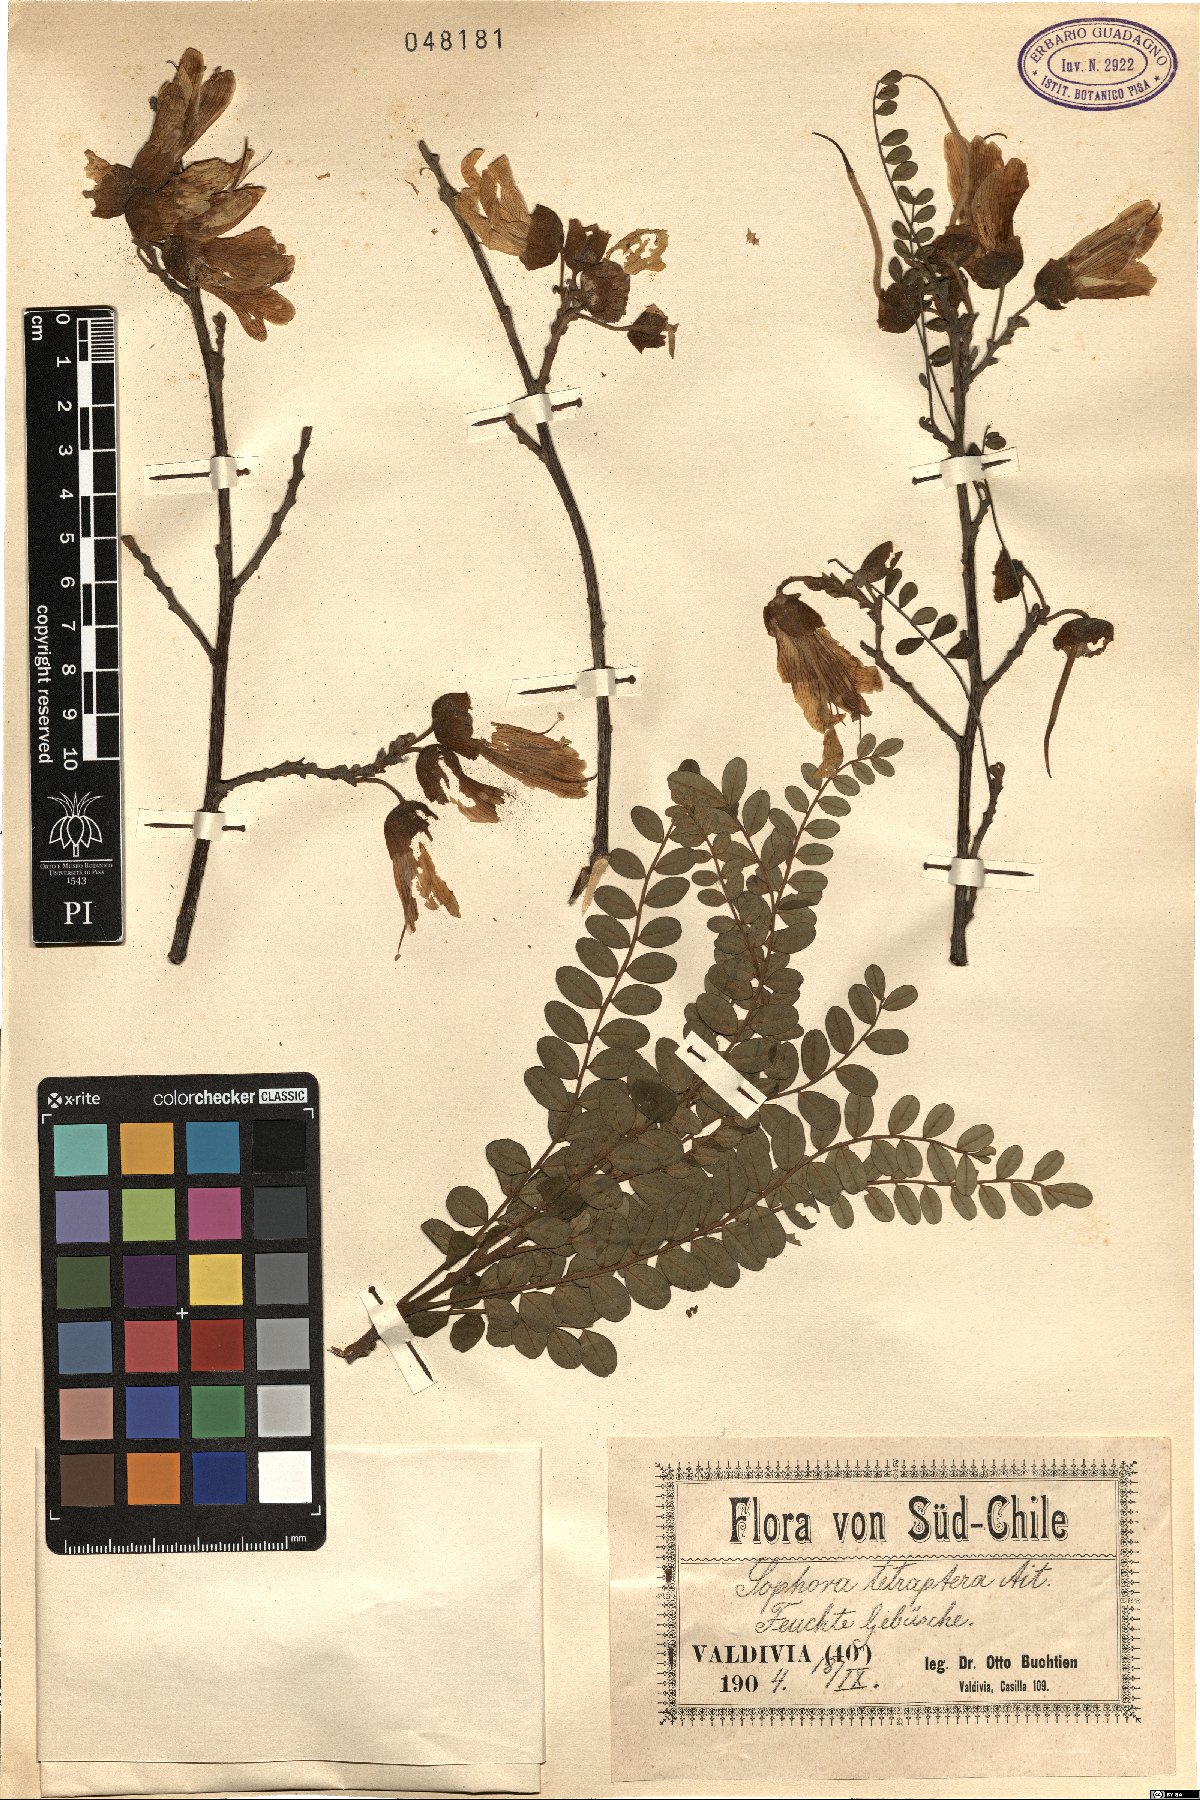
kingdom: Plantae
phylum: Tracheophyta
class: Magnoliopsida
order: Fabales
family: Fabaceae
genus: Sophora
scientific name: Sophora tetraptera
